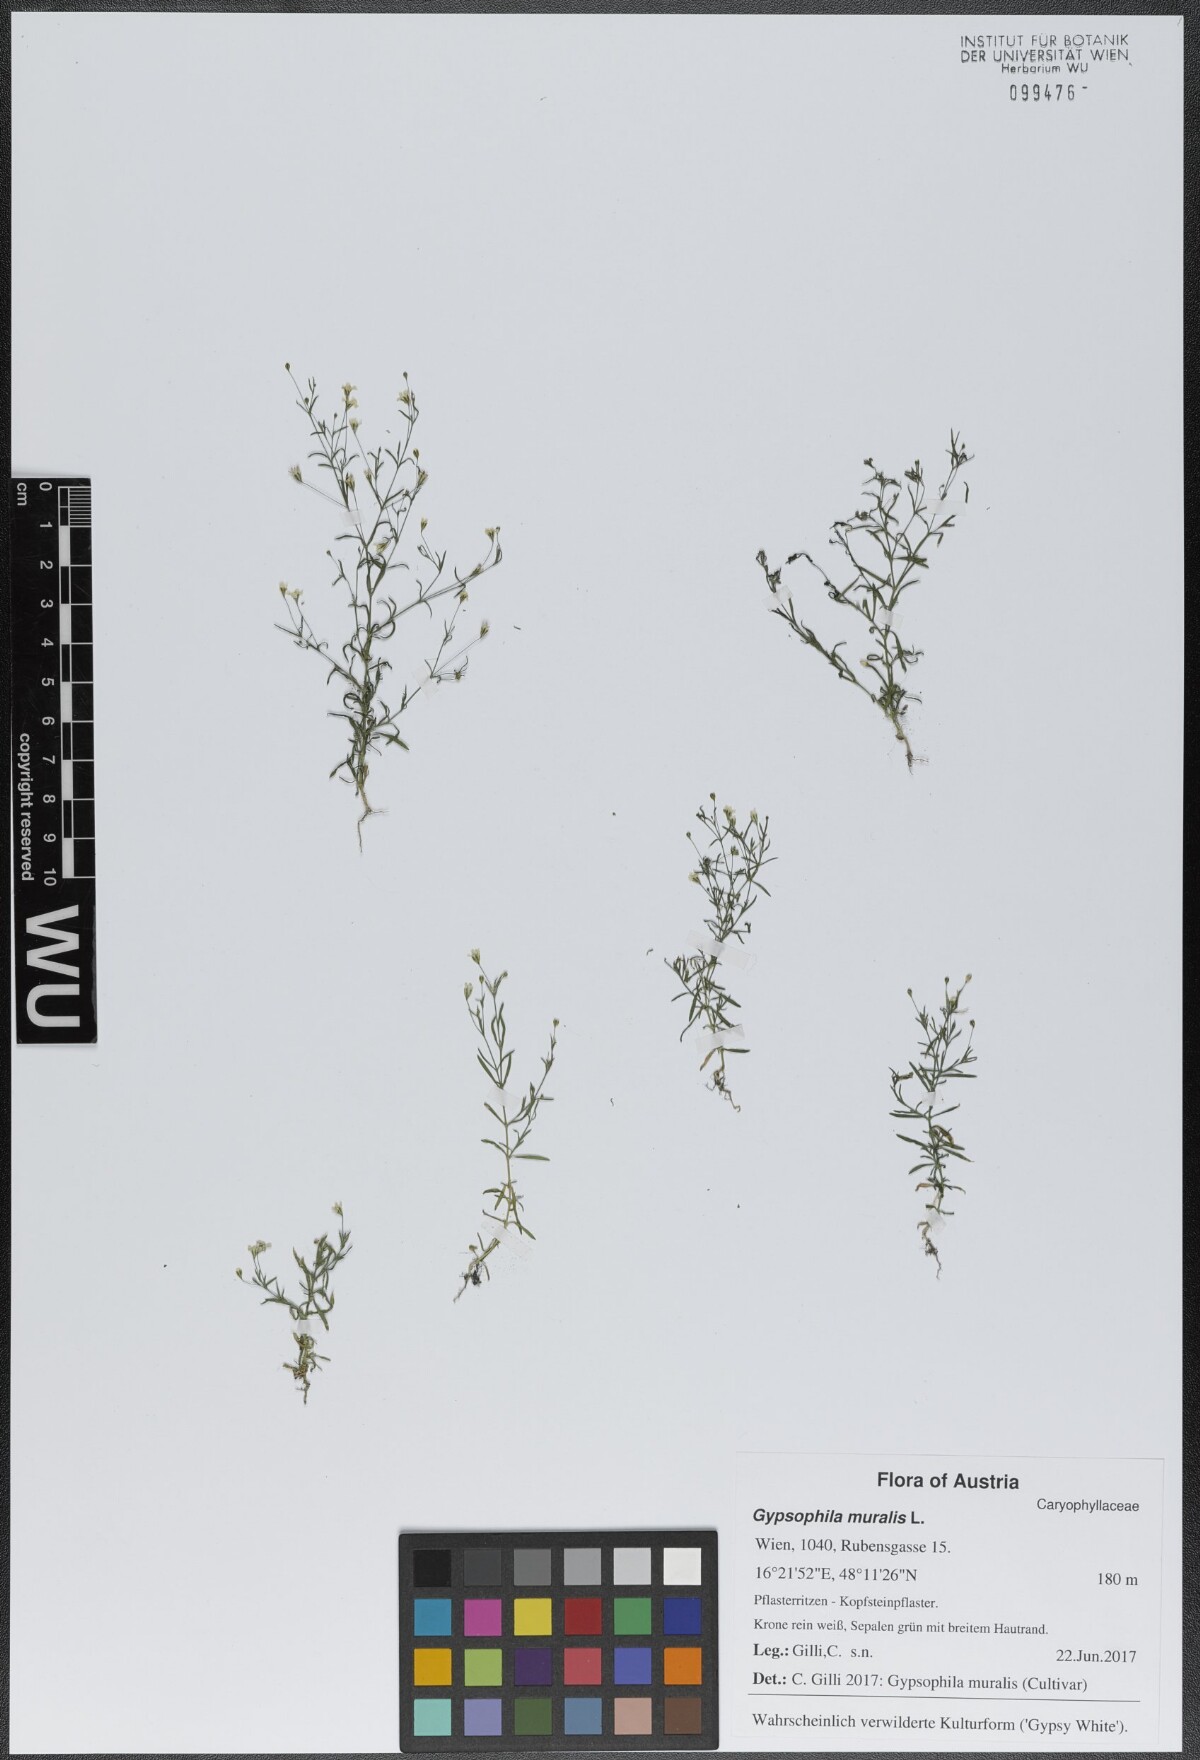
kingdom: Plantae
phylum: Tracheophyta
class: Magnoliopsida
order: Caryophyllales
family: Caryophyllaceae
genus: Psammophiliella
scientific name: Psammophiliella muralis
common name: Cushion baby's-breath
